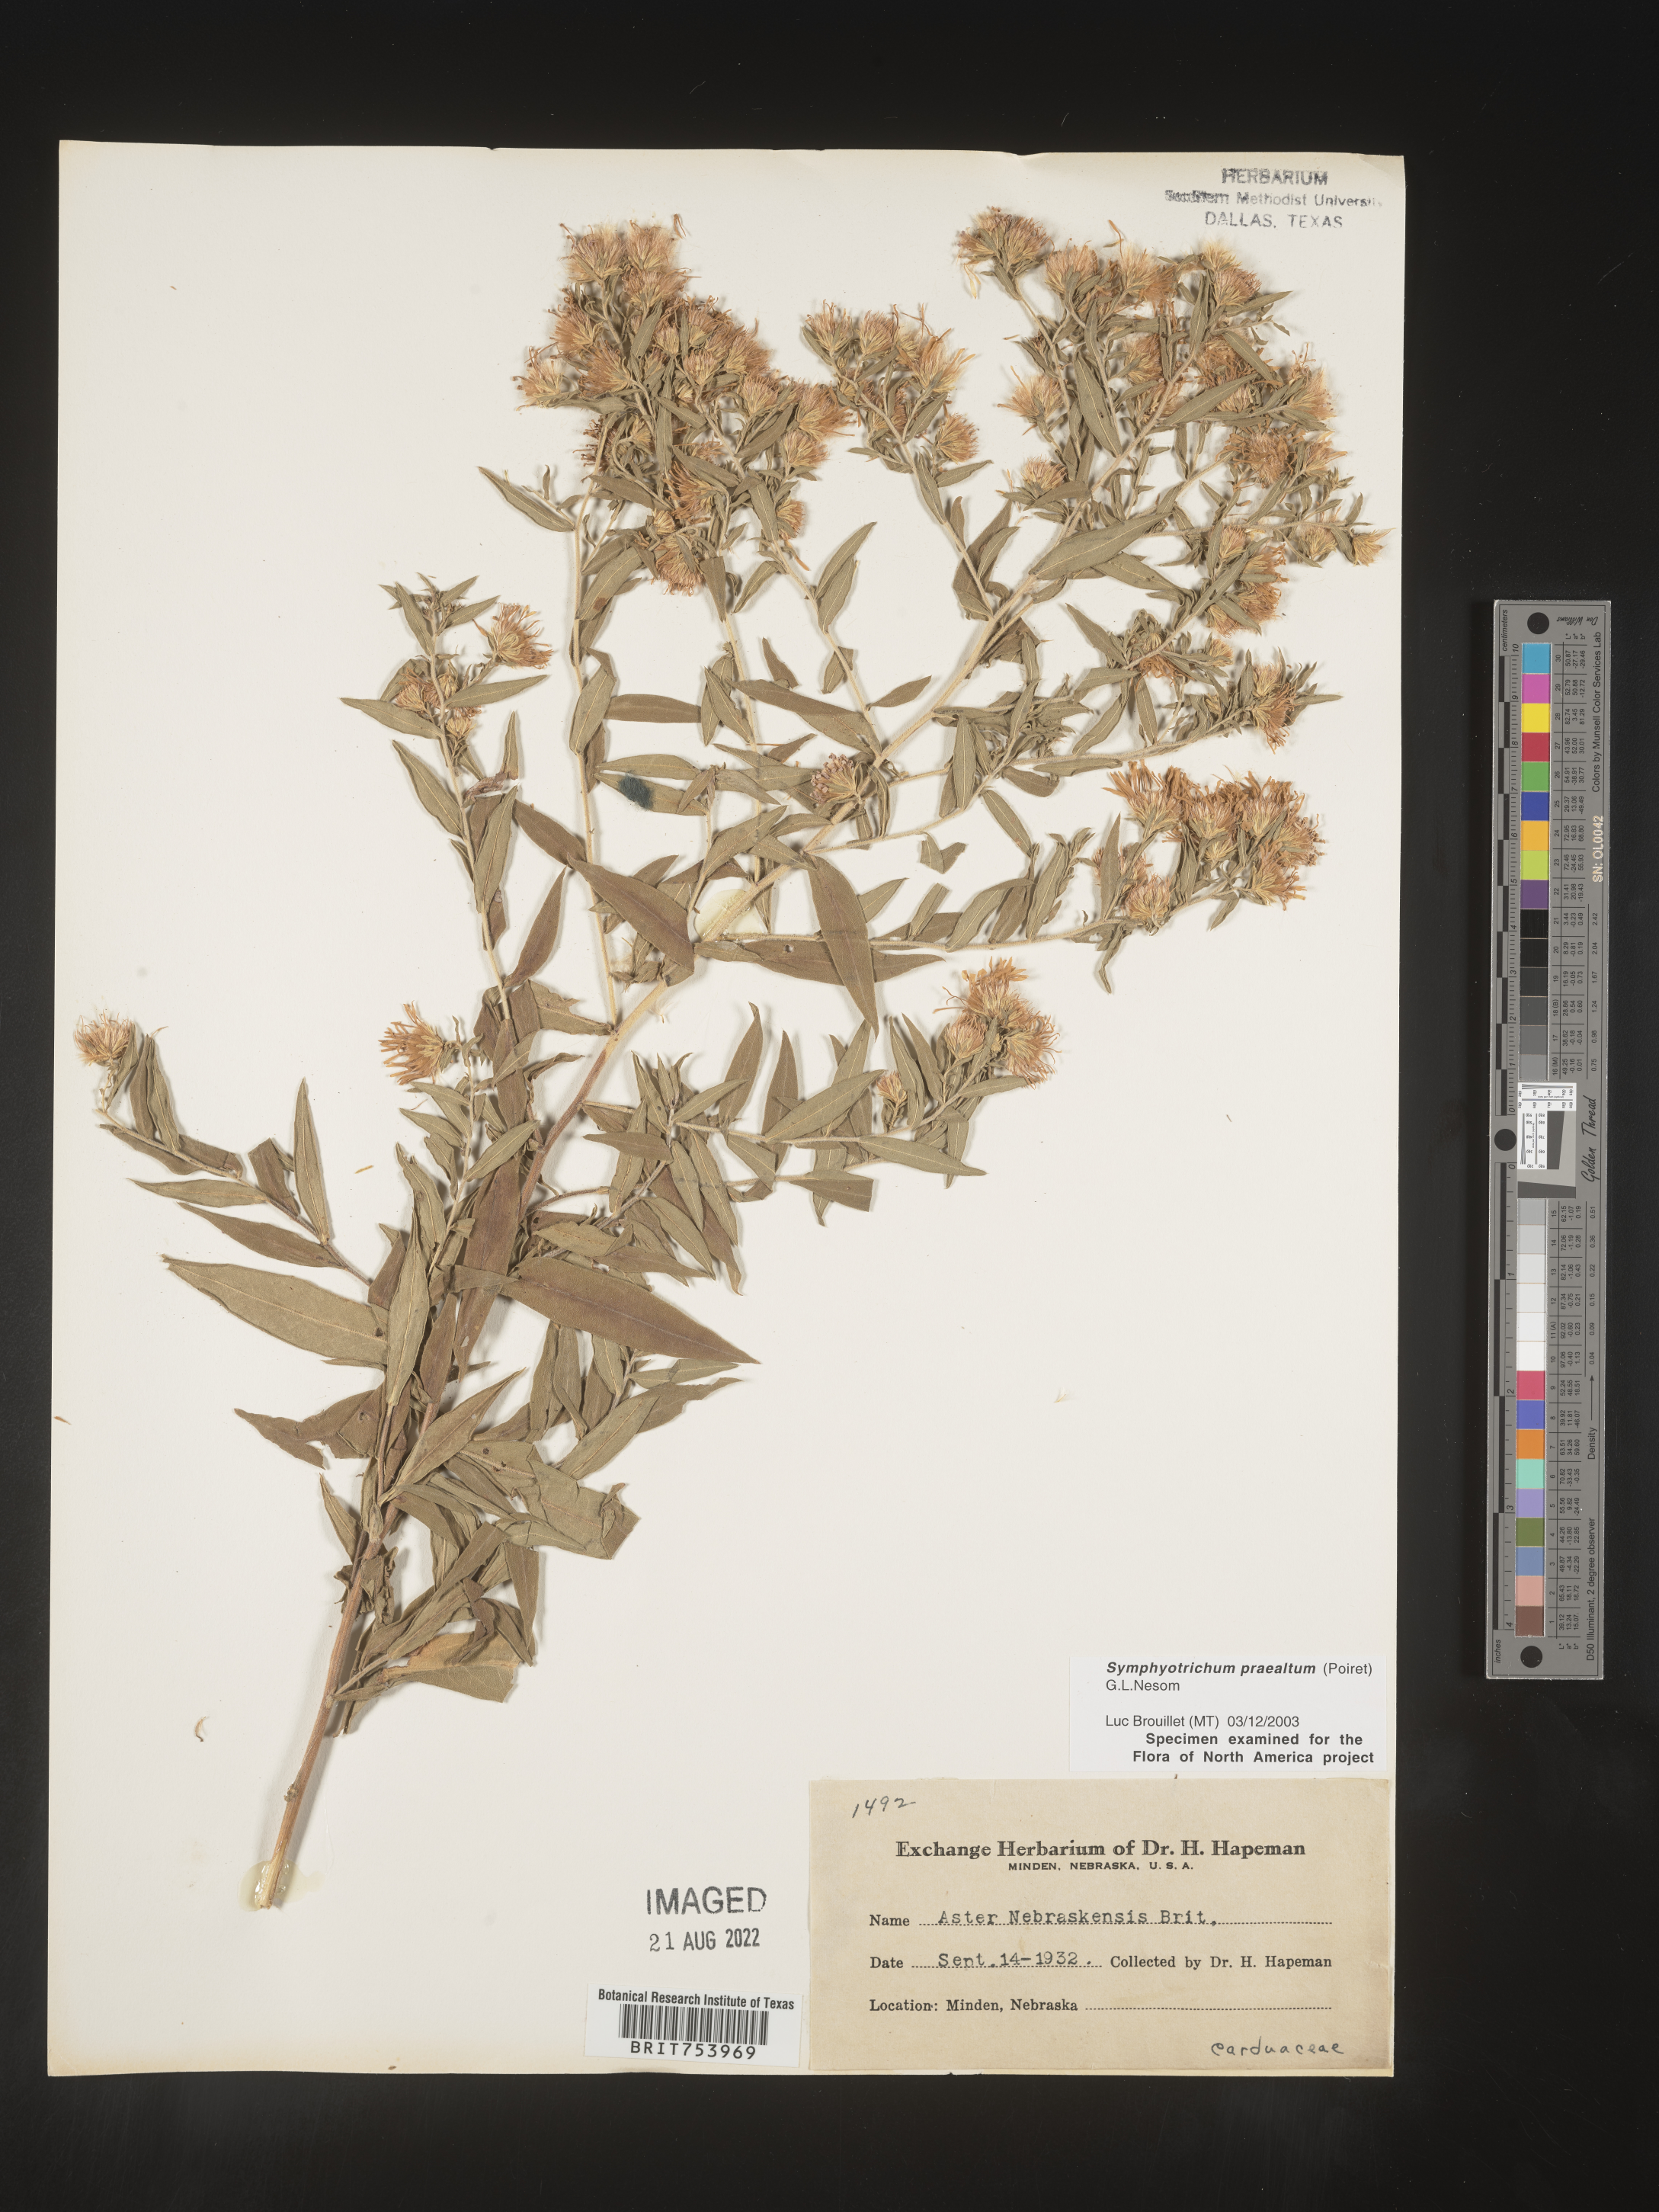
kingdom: Plantae
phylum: Tracheophyta
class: Magnoliopsida
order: Asterales
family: Asteraceae
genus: Symphyotrichum
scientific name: Symphyotrichum praealtum
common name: Willow aster
